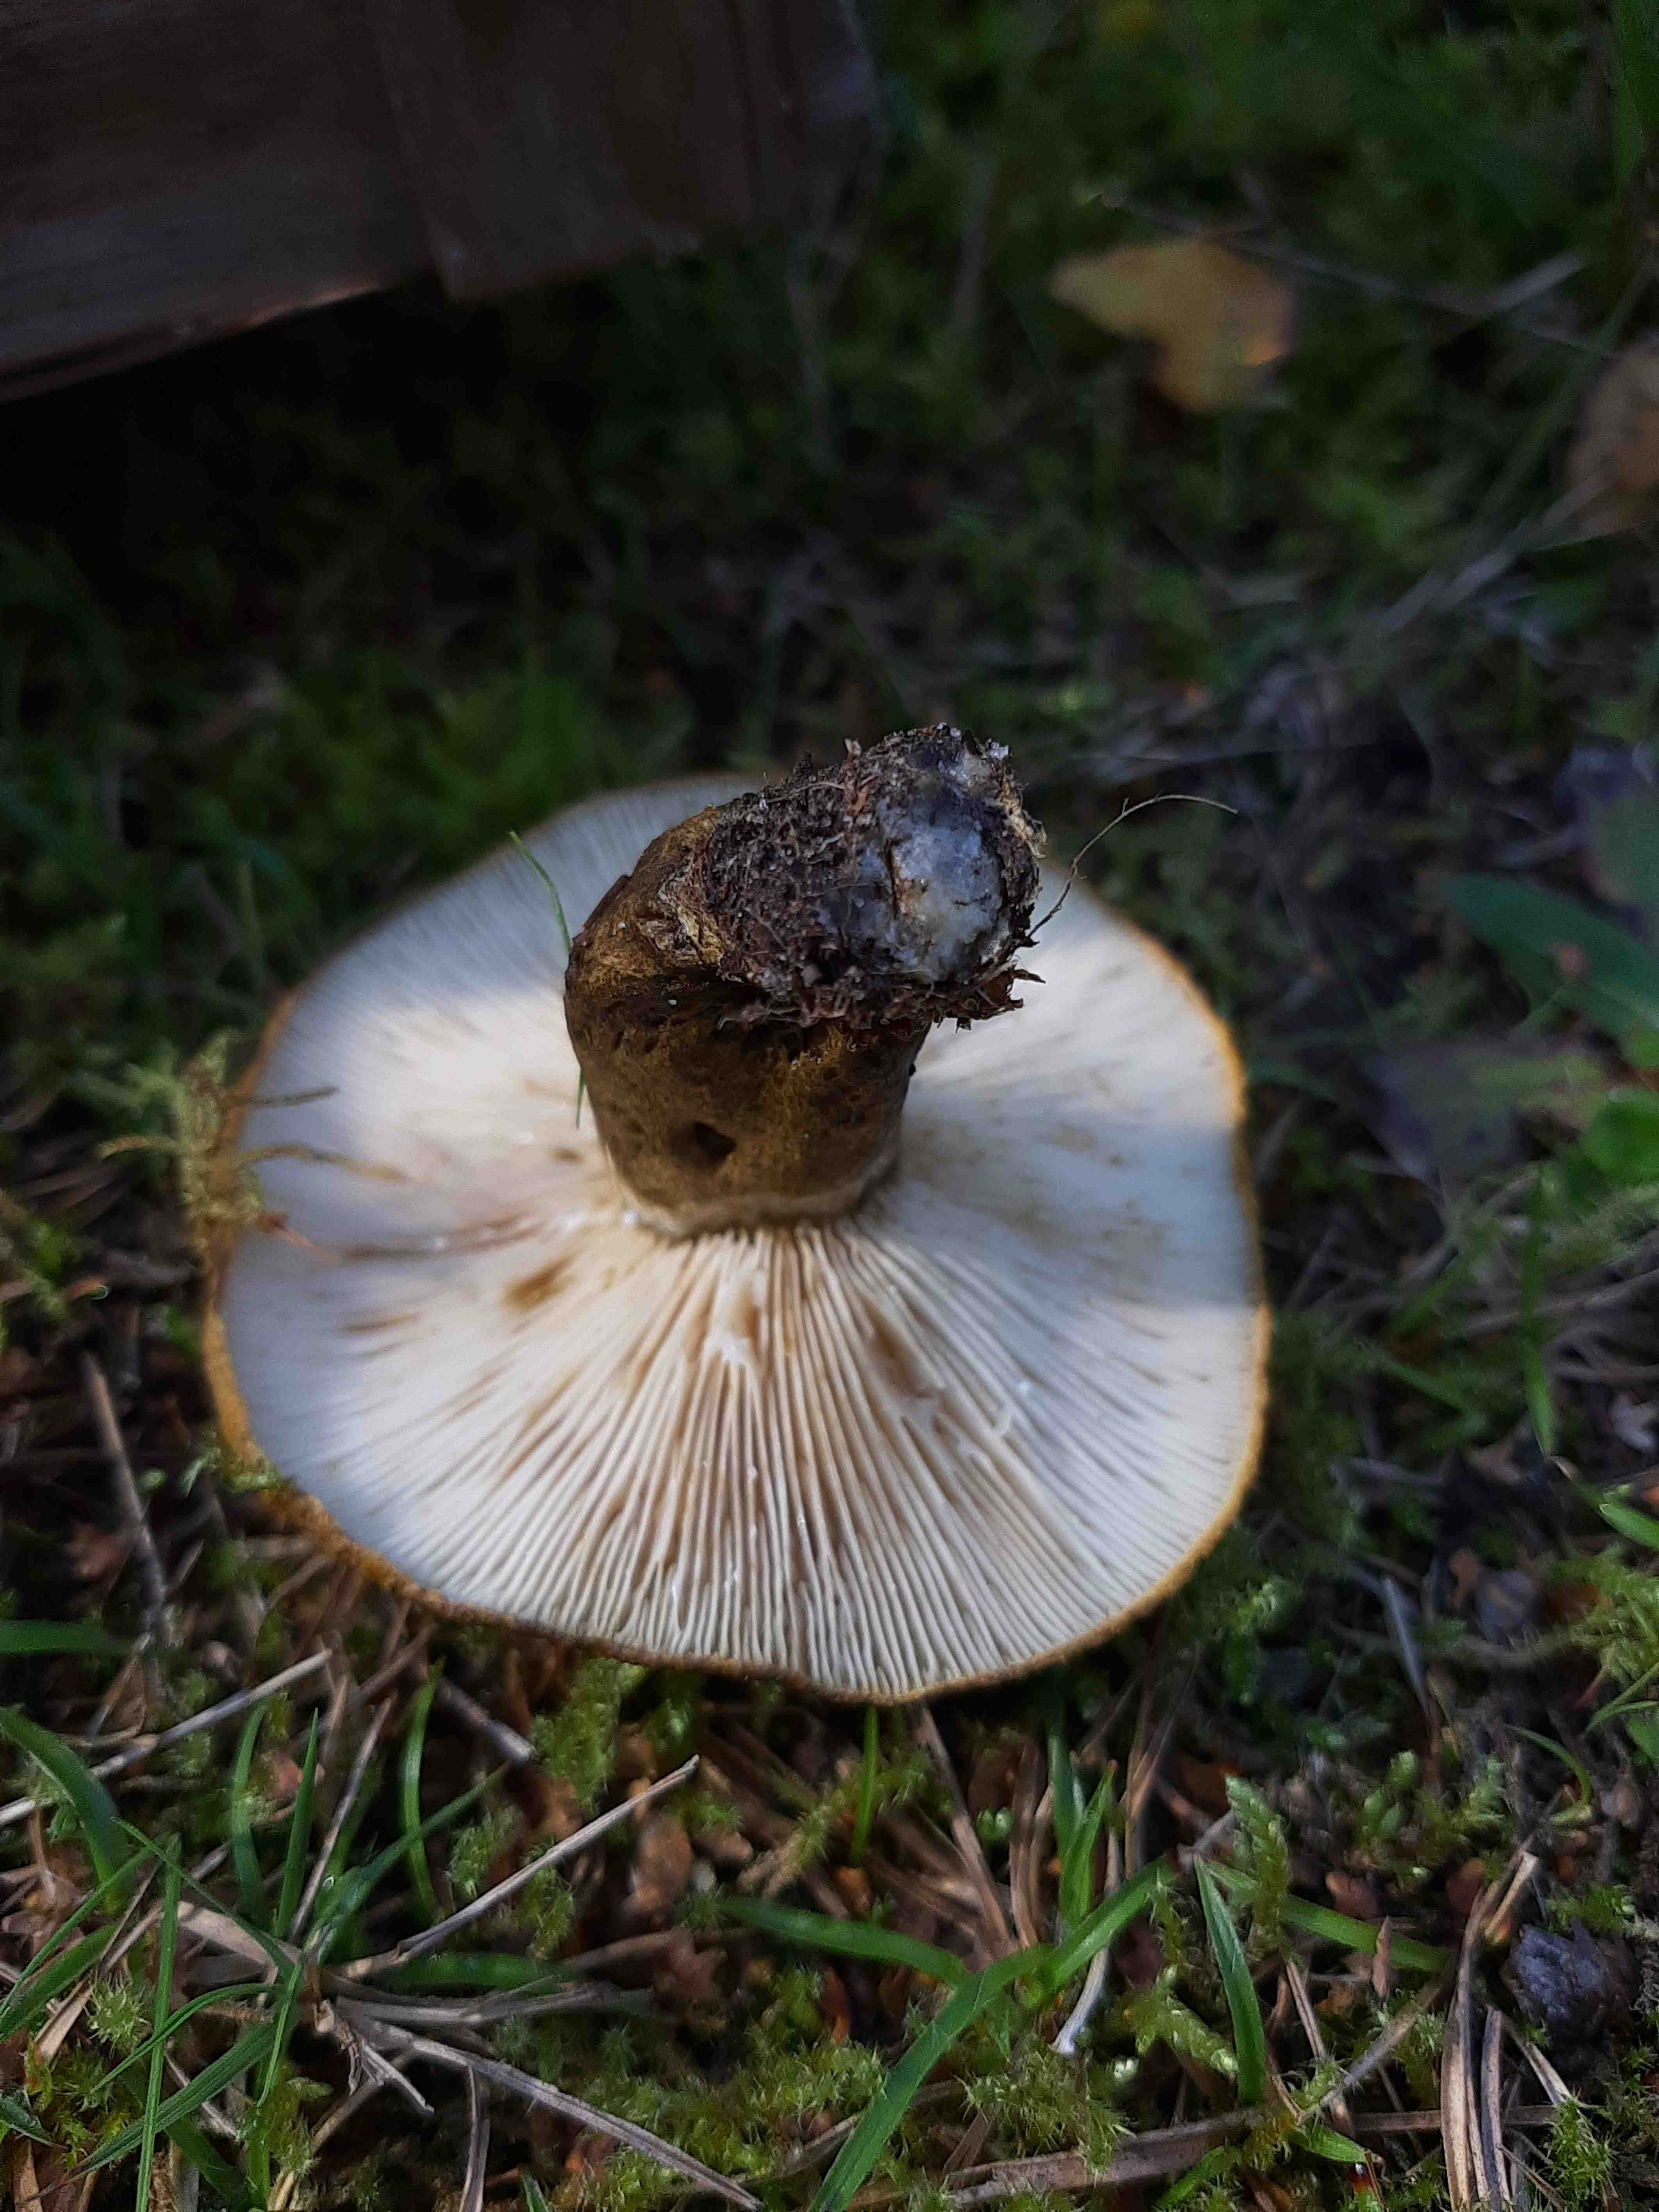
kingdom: Fungi
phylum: Basidiomycota
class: Agaricomycetes
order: Russulales
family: Russulaceae
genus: Lactarius
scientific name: Lactarius necator
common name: manddraber-mælkehat
